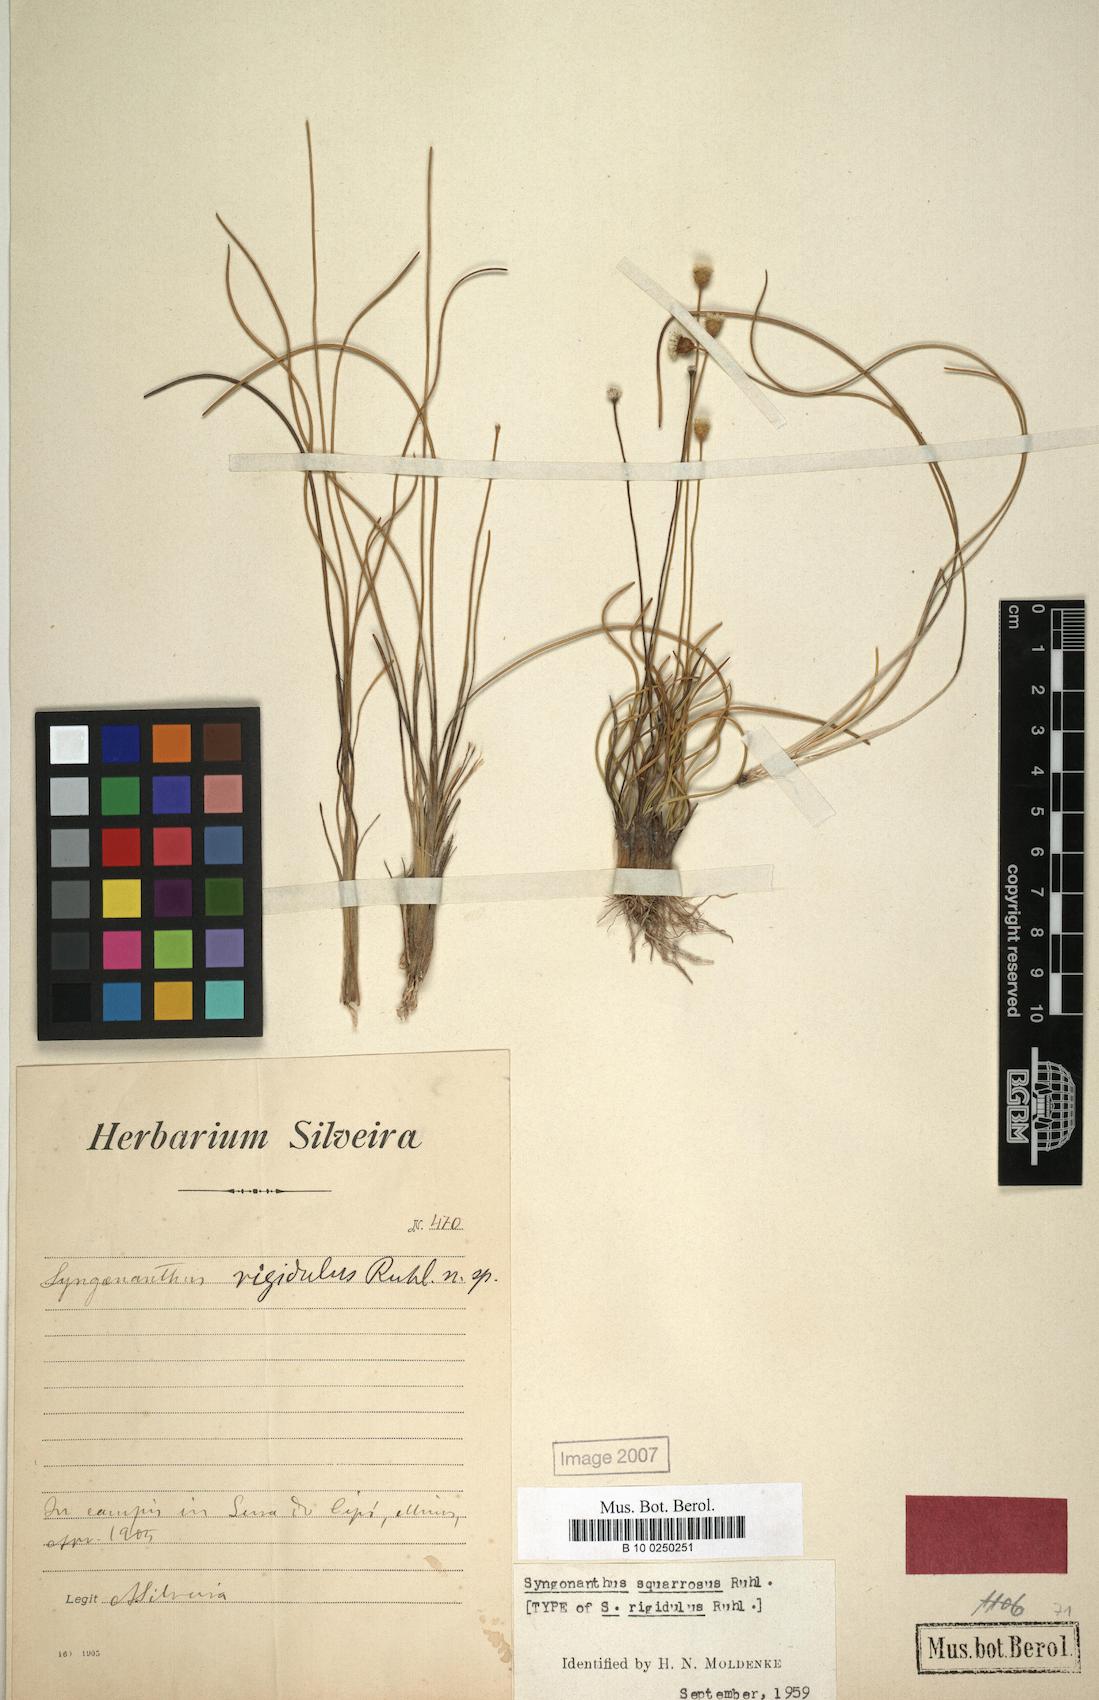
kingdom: Plantae
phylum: Tracheophyta
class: Liliopsida
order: Poales
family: Eriocaulaceae
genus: Comanthera
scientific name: Comanthera centauroides
